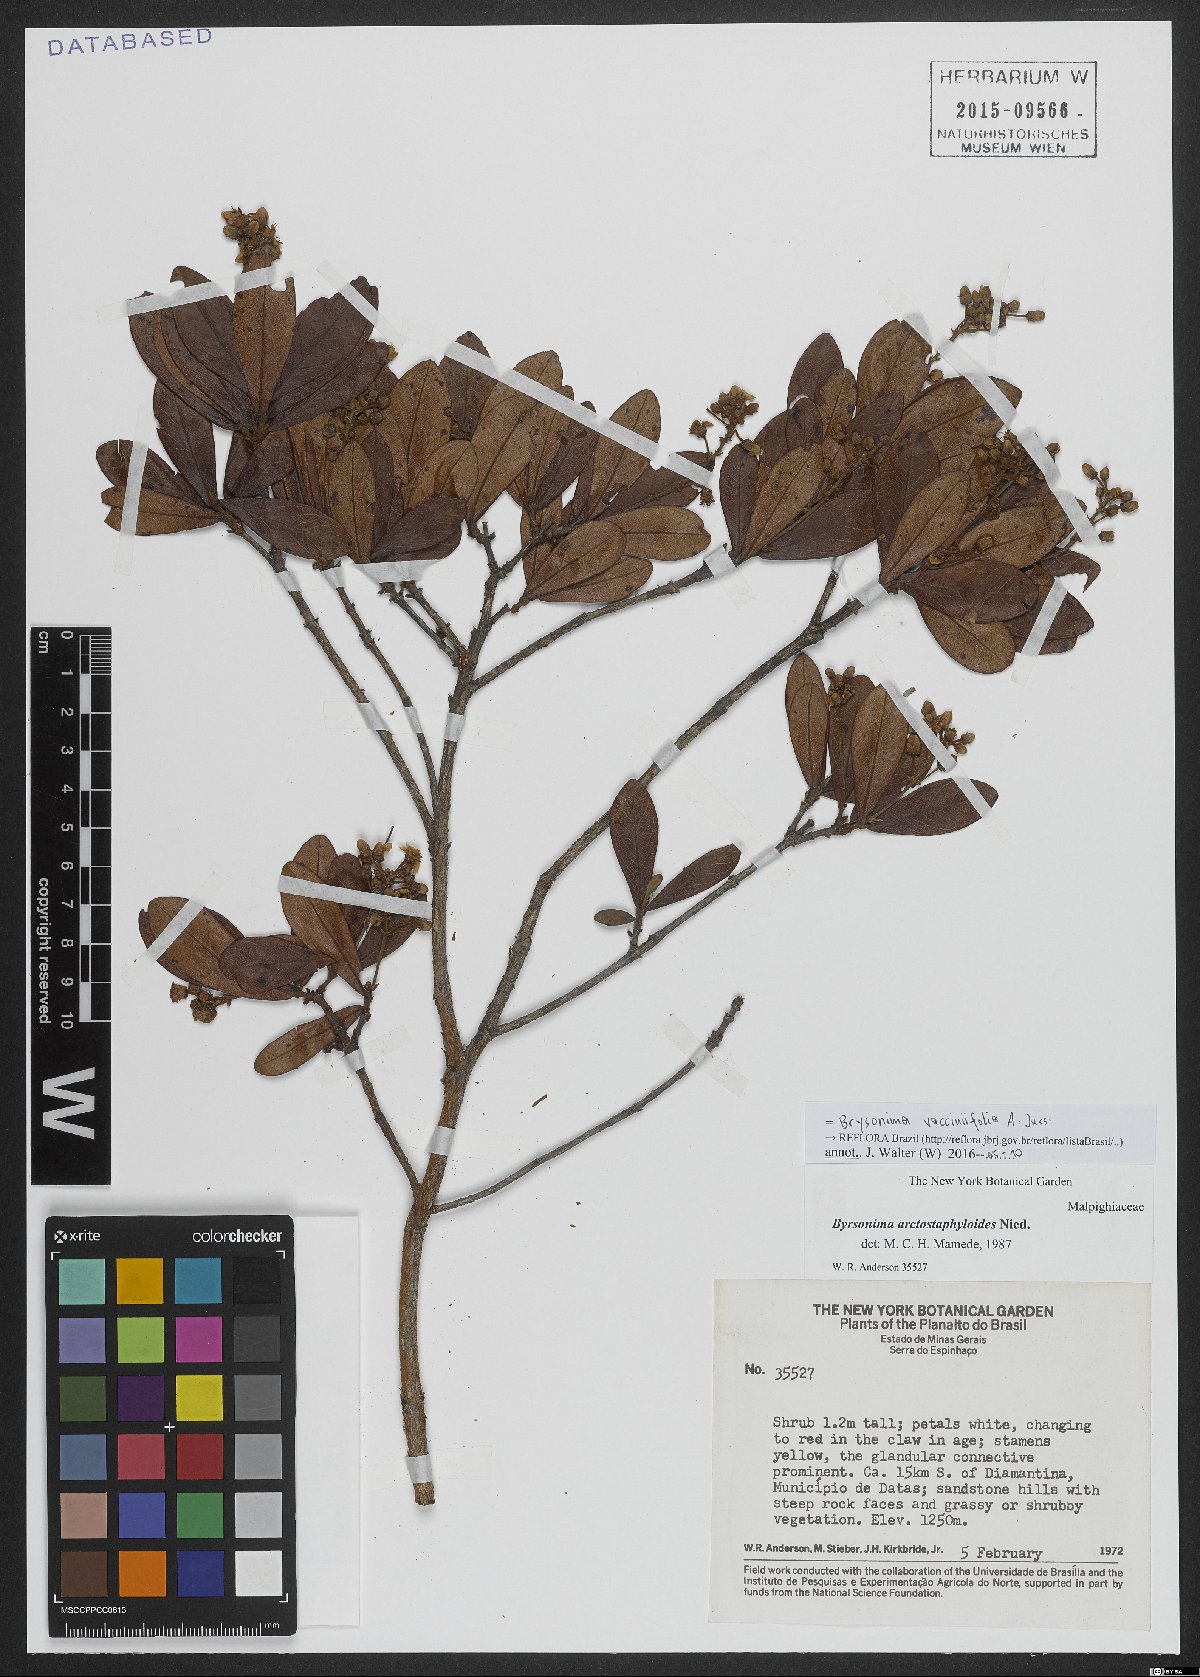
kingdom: Plantae
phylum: Tracheophyta
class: Magnoliopsida
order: Malpighiales
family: Malpighiaceae
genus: Byrsonima
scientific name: Byrsonima vacciniifolia
